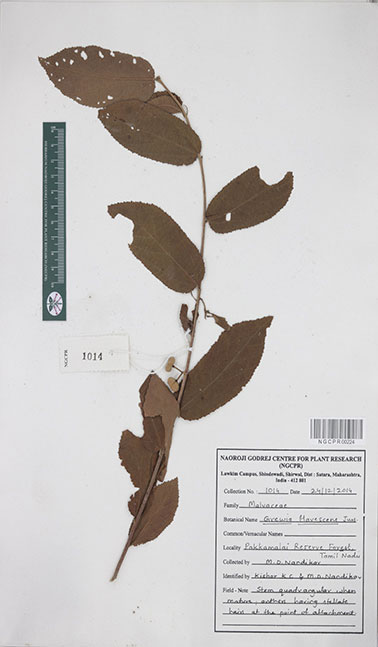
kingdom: Plantae
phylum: Tracheophyta
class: Magnoliopsida
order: Malvales
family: Malvaceae
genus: Grewia
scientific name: Grewia flavescens
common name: Sandpaper raisin
